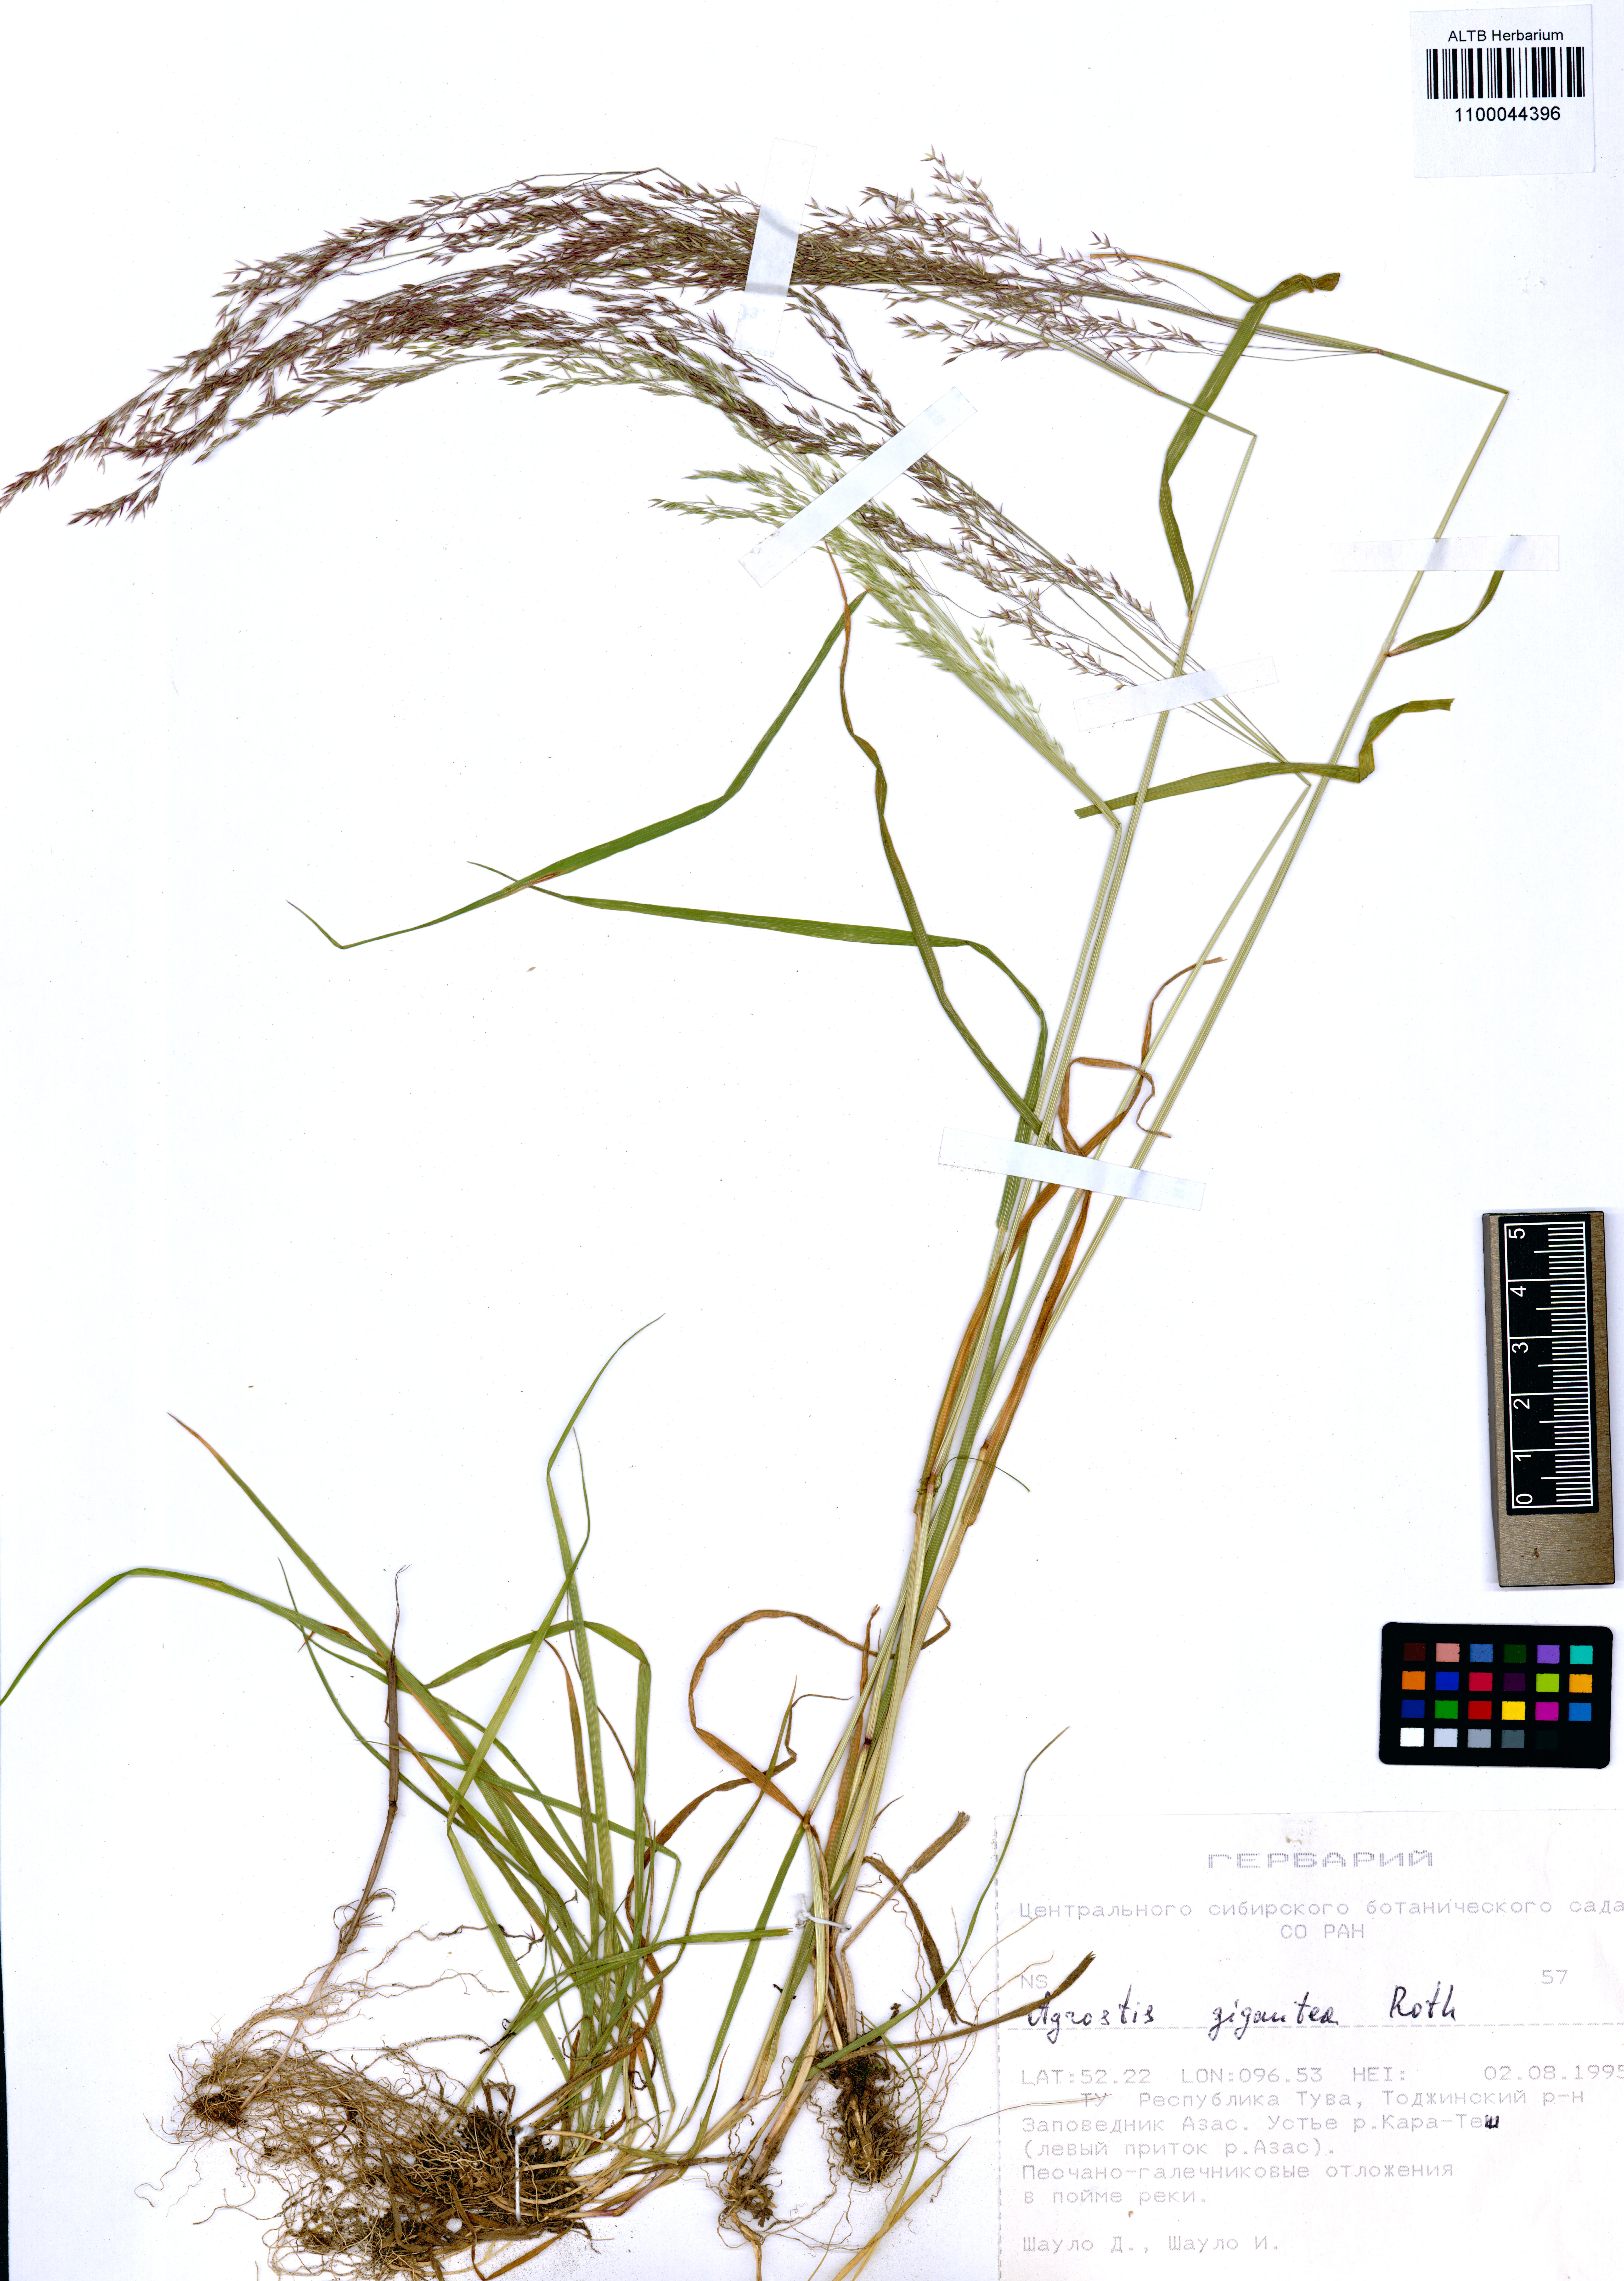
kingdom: Plantae
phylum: Tracheophyta
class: Liliopsida
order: Poales
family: Poaceae
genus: Agrostis
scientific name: Agrostis gigantea
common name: Black bent
